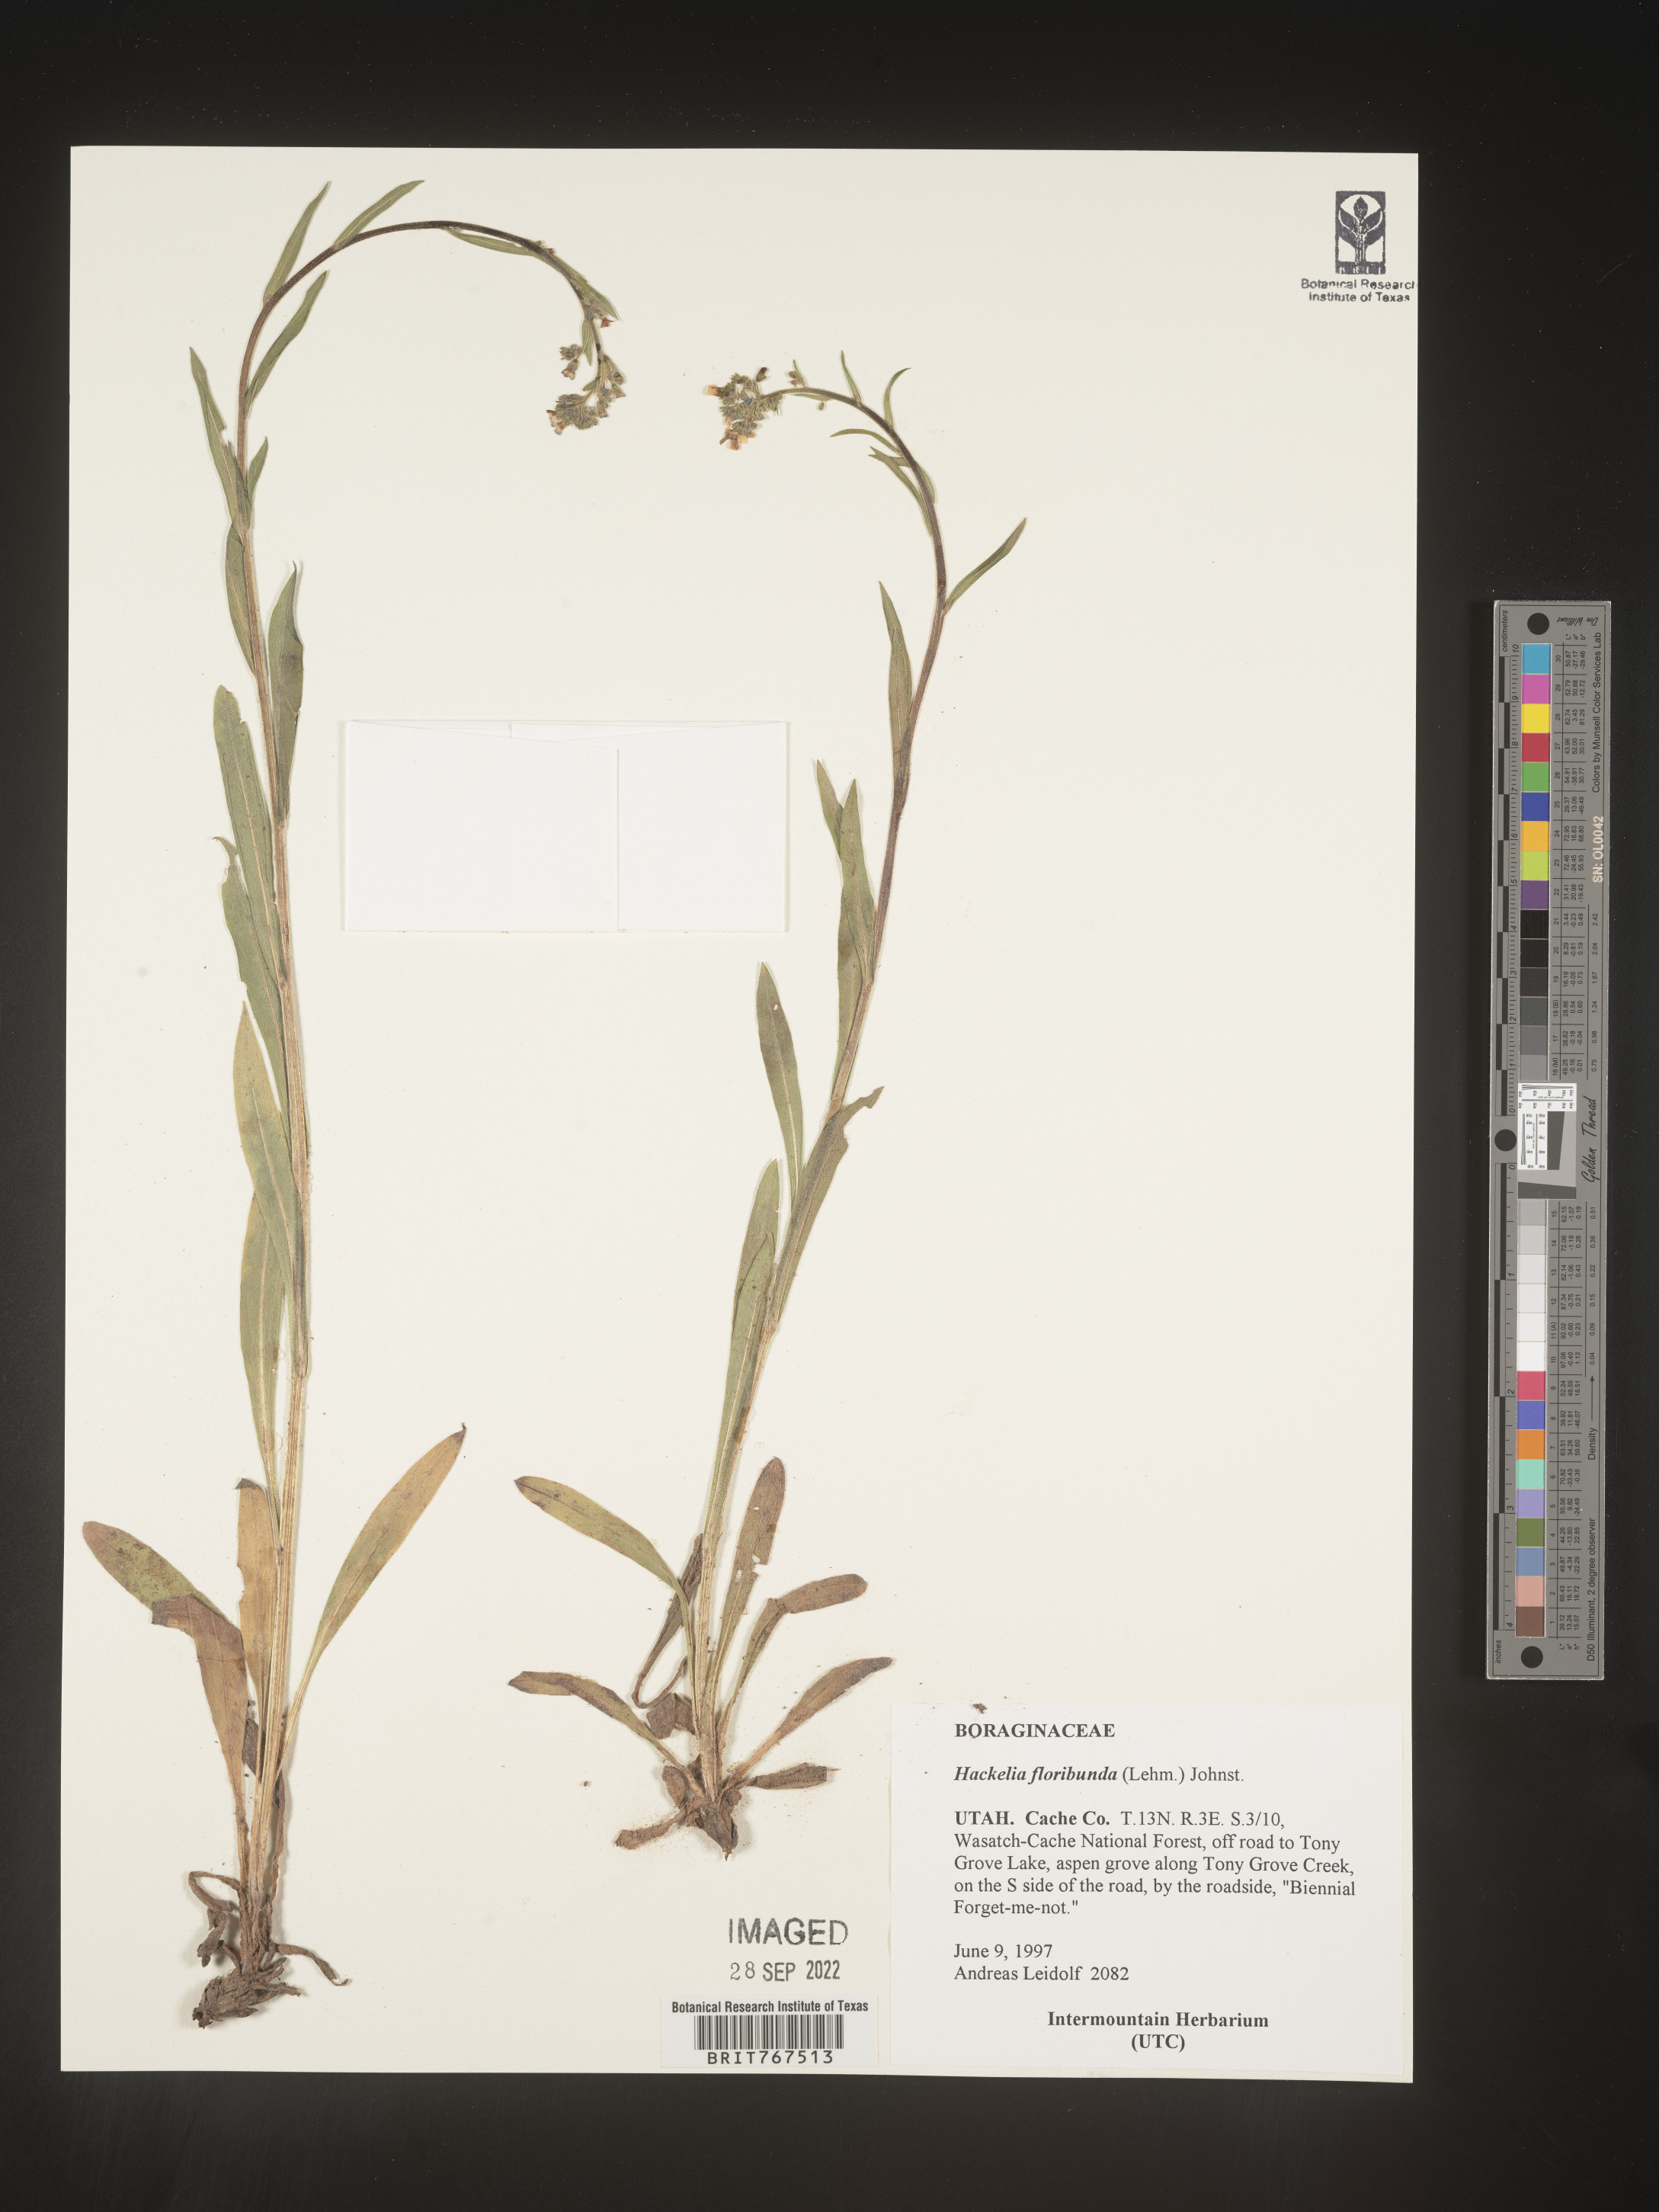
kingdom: Plantae
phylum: Tracheophyta
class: Magnoliopsida
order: Boraginales
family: Boraginaceae
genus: Hackelia
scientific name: Hackelia floribunda
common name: Large-flowered stickseed
